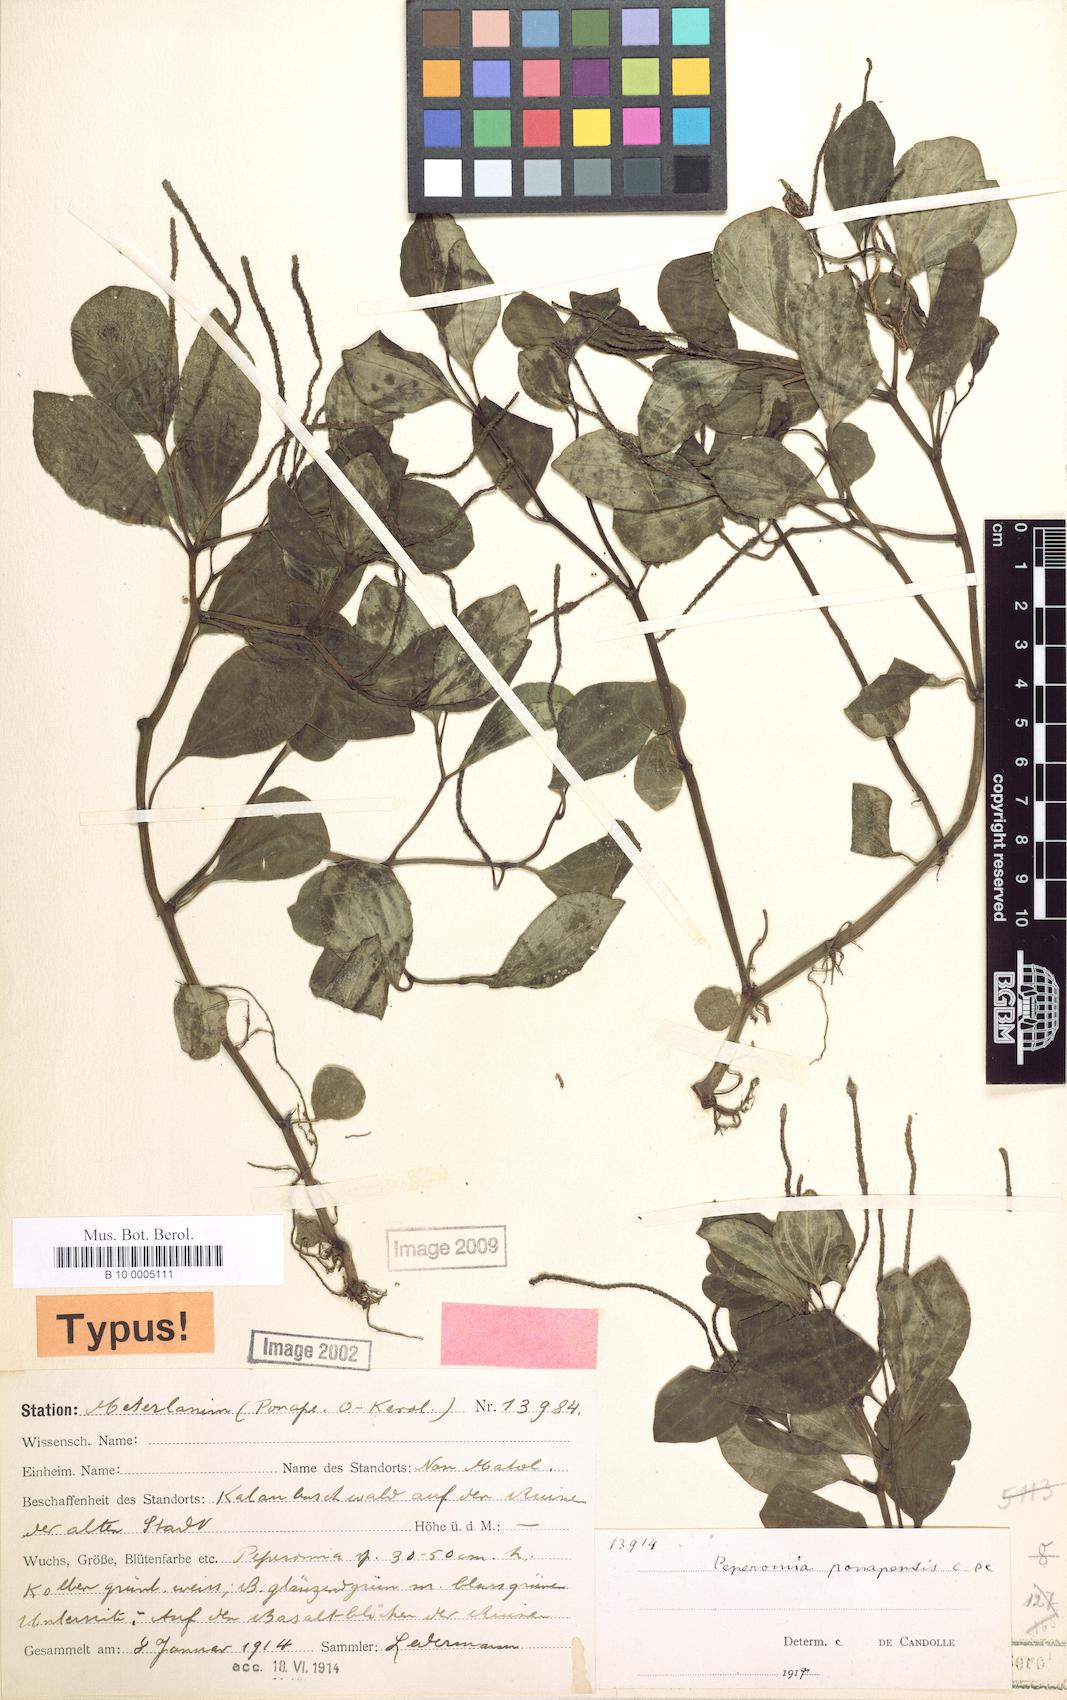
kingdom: Plantae
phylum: Tracheophyta
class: Magnoliopsida
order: Piperales
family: Piperaceae
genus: Peperomia
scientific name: Peperomia ponapensis
